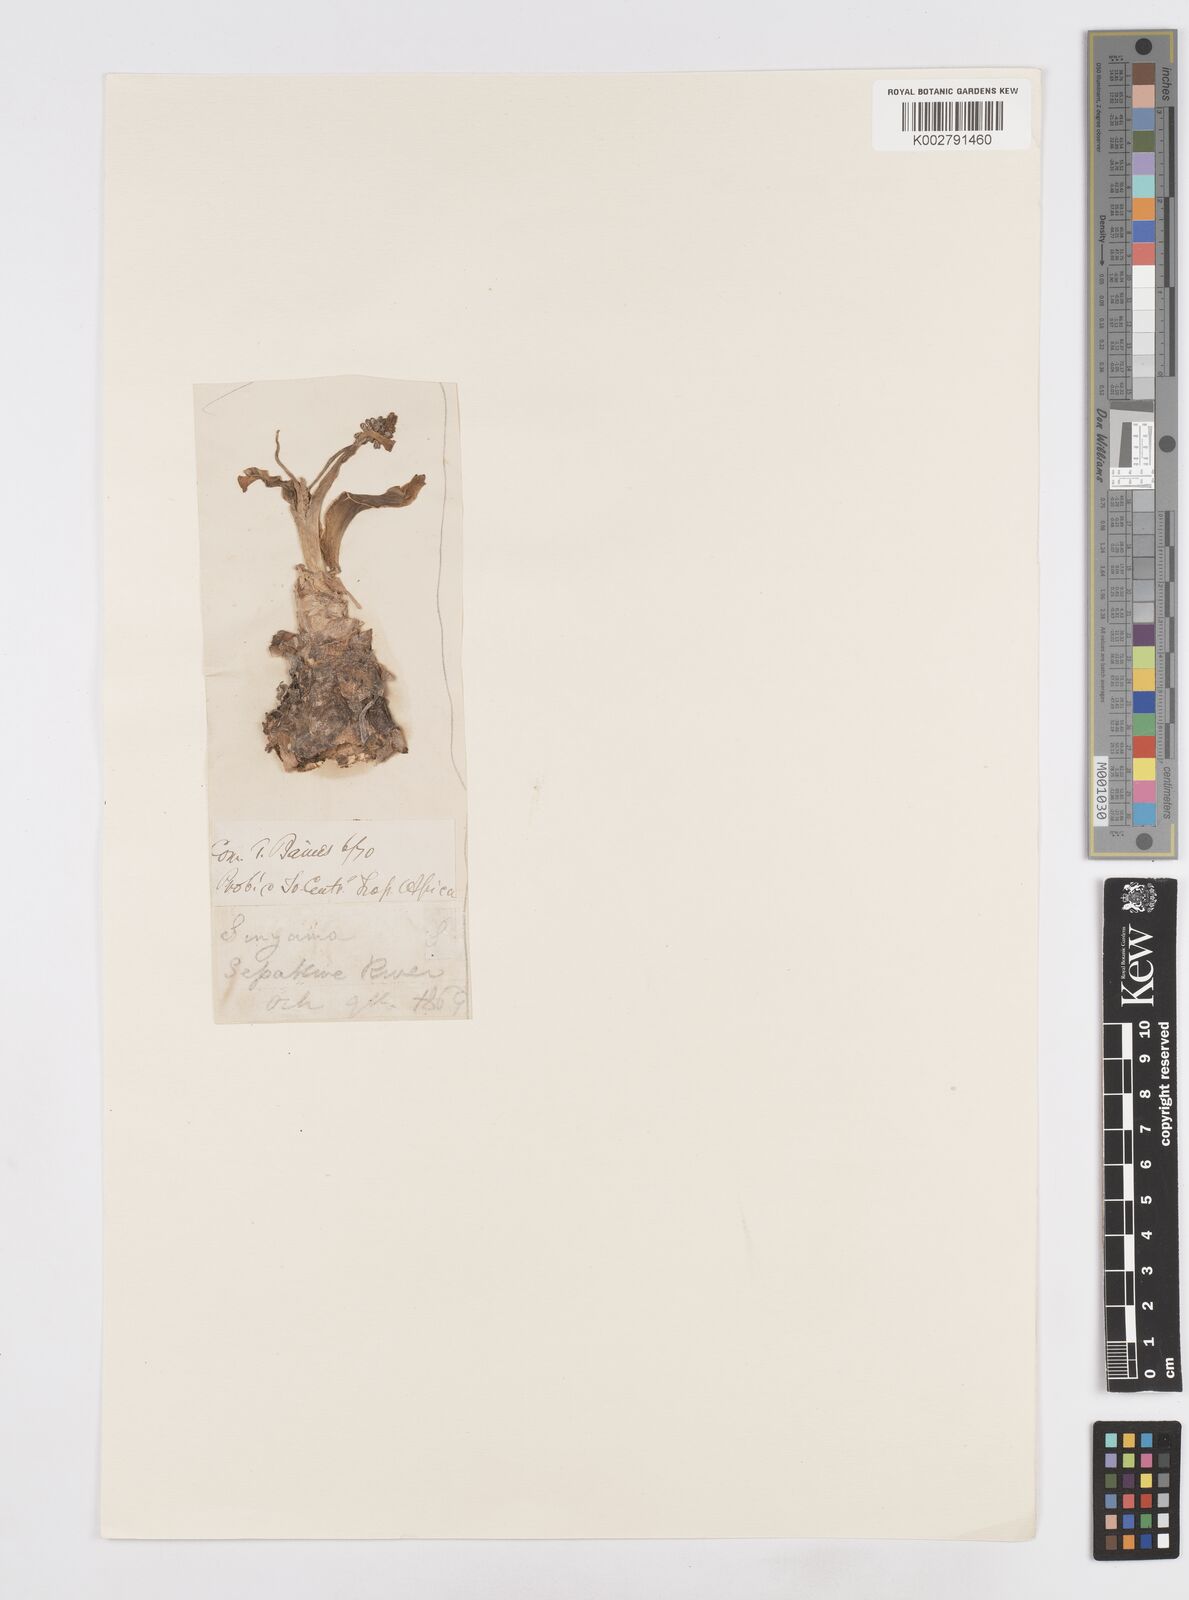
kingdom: Plantae
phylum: Tracheophyta
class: Liliopsida
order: Asparagales
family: Asparagaceae
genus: Scilla
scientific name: Scilla
